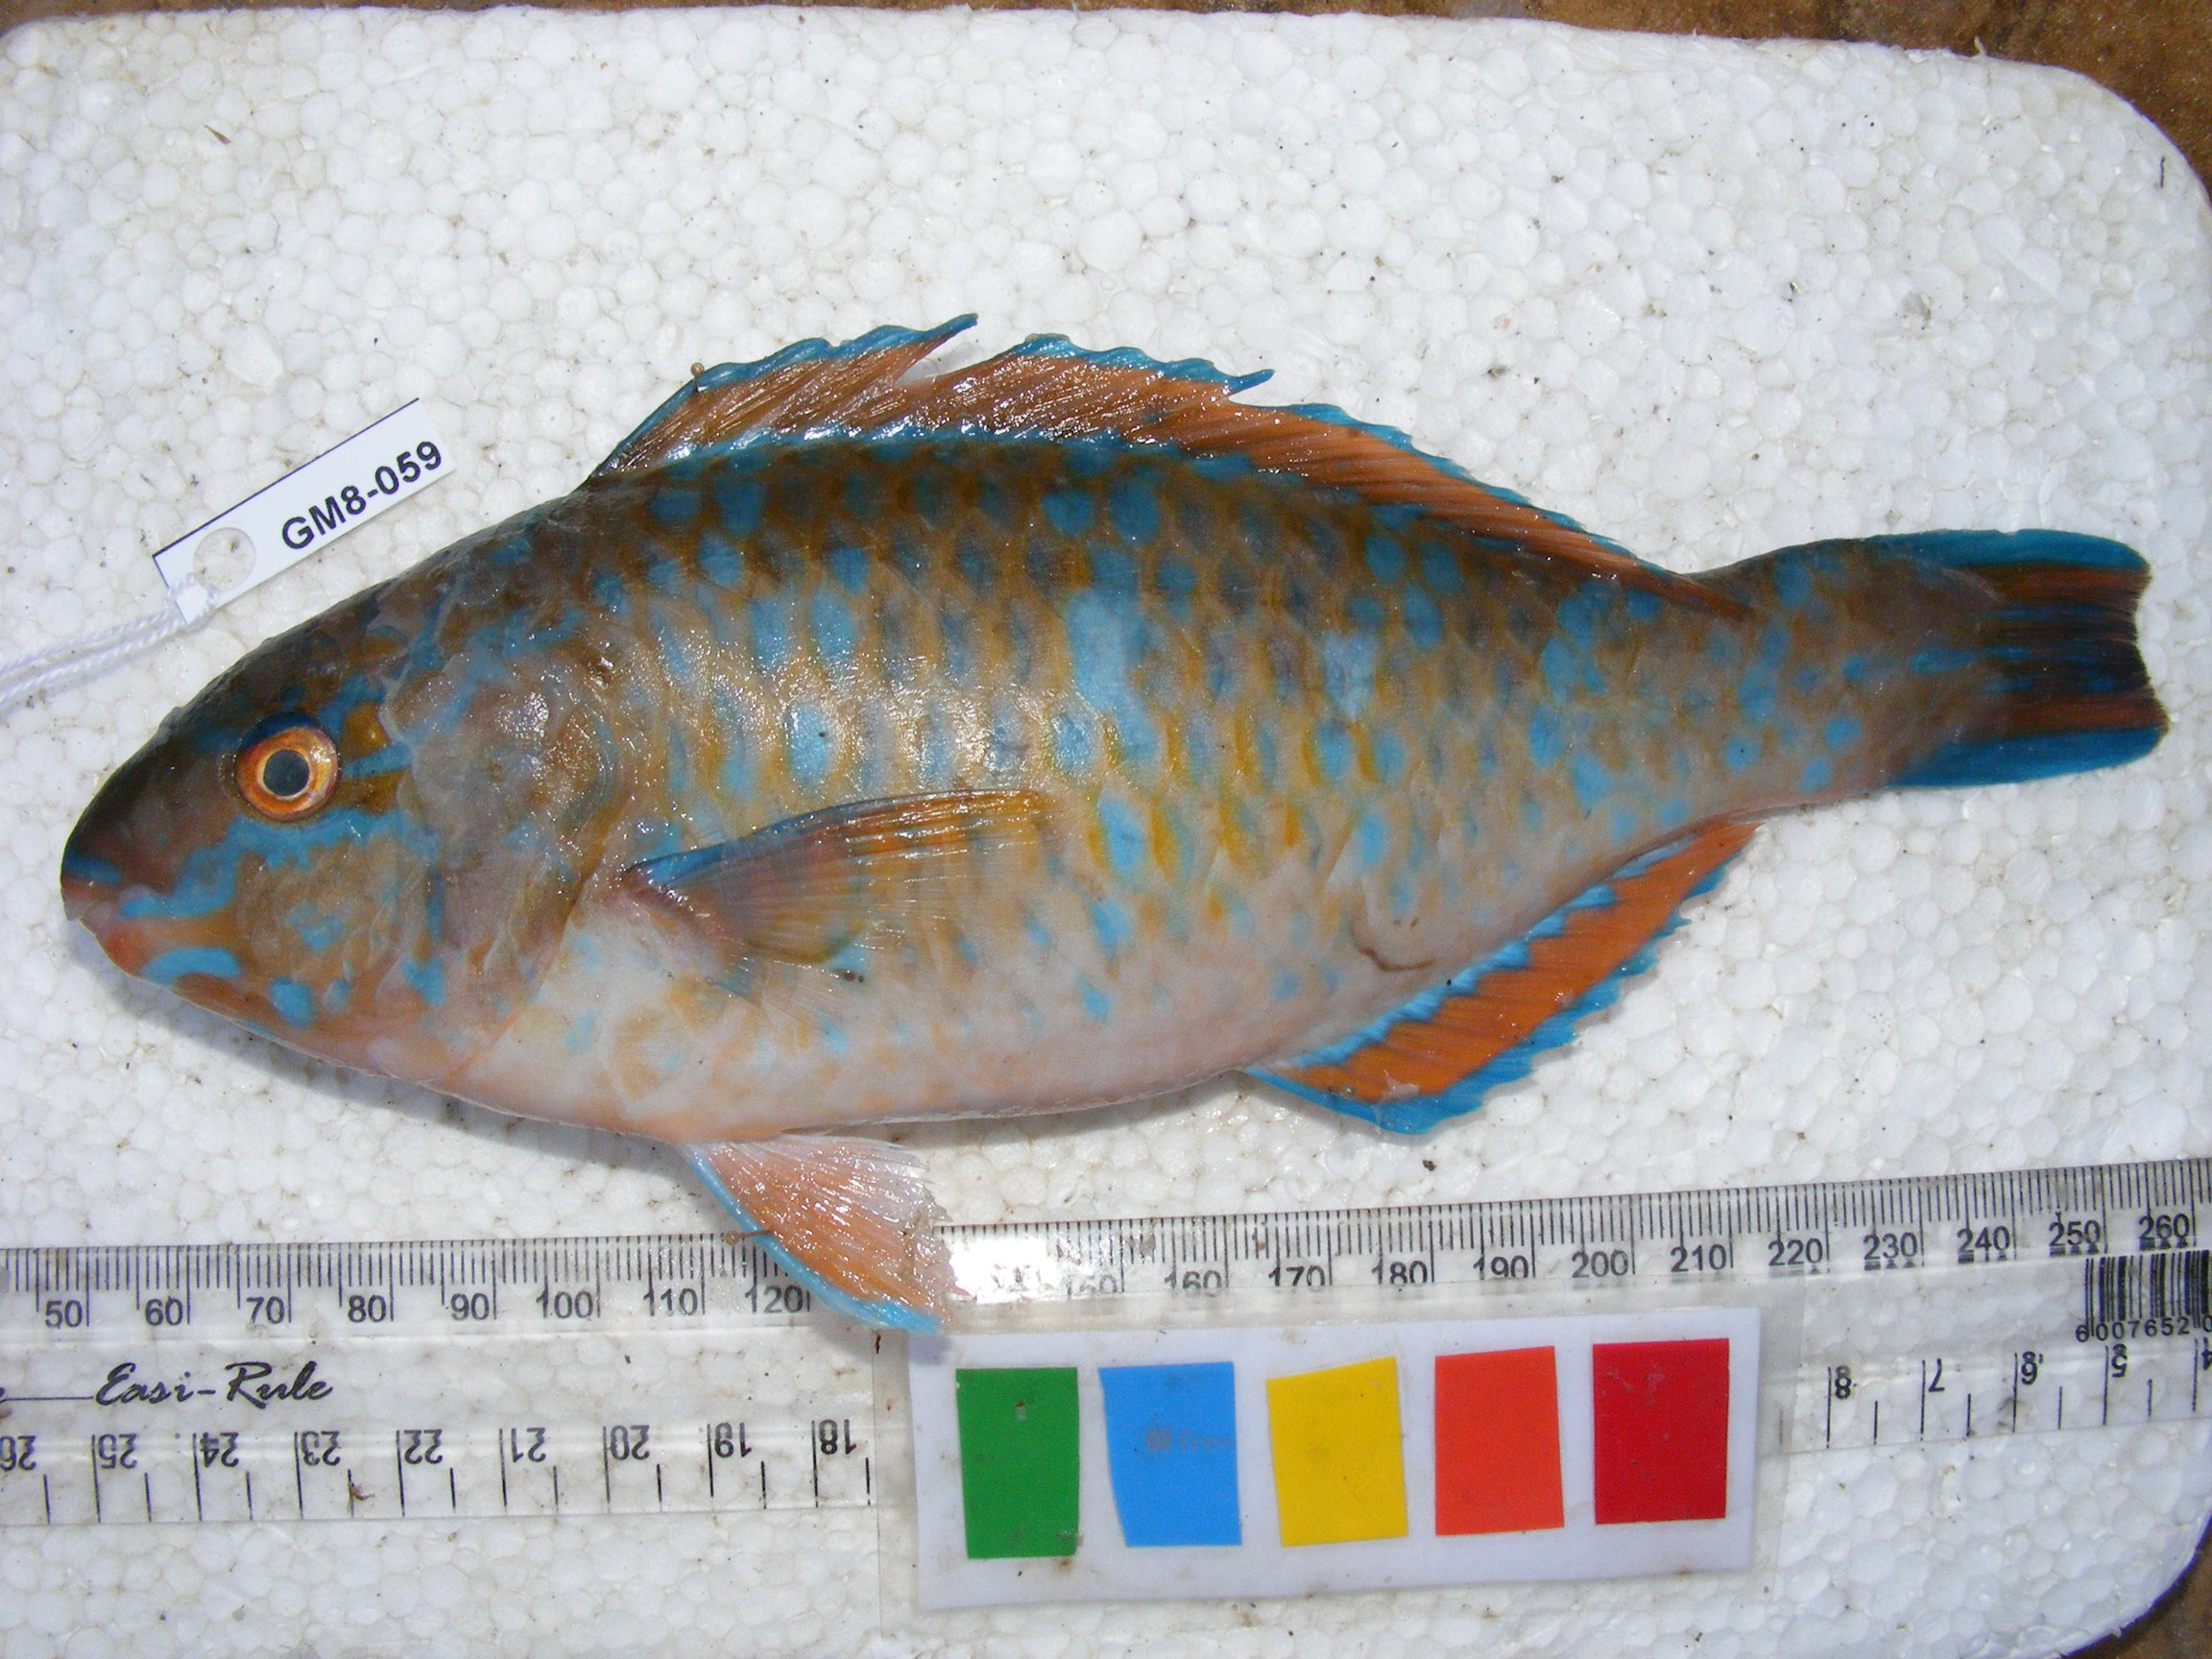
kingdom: Animalia
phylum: Chordata
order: Perciformes
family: Scaridae
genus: Scarus
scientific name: Scarus ghobban
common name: Blue-barred parrotfish
